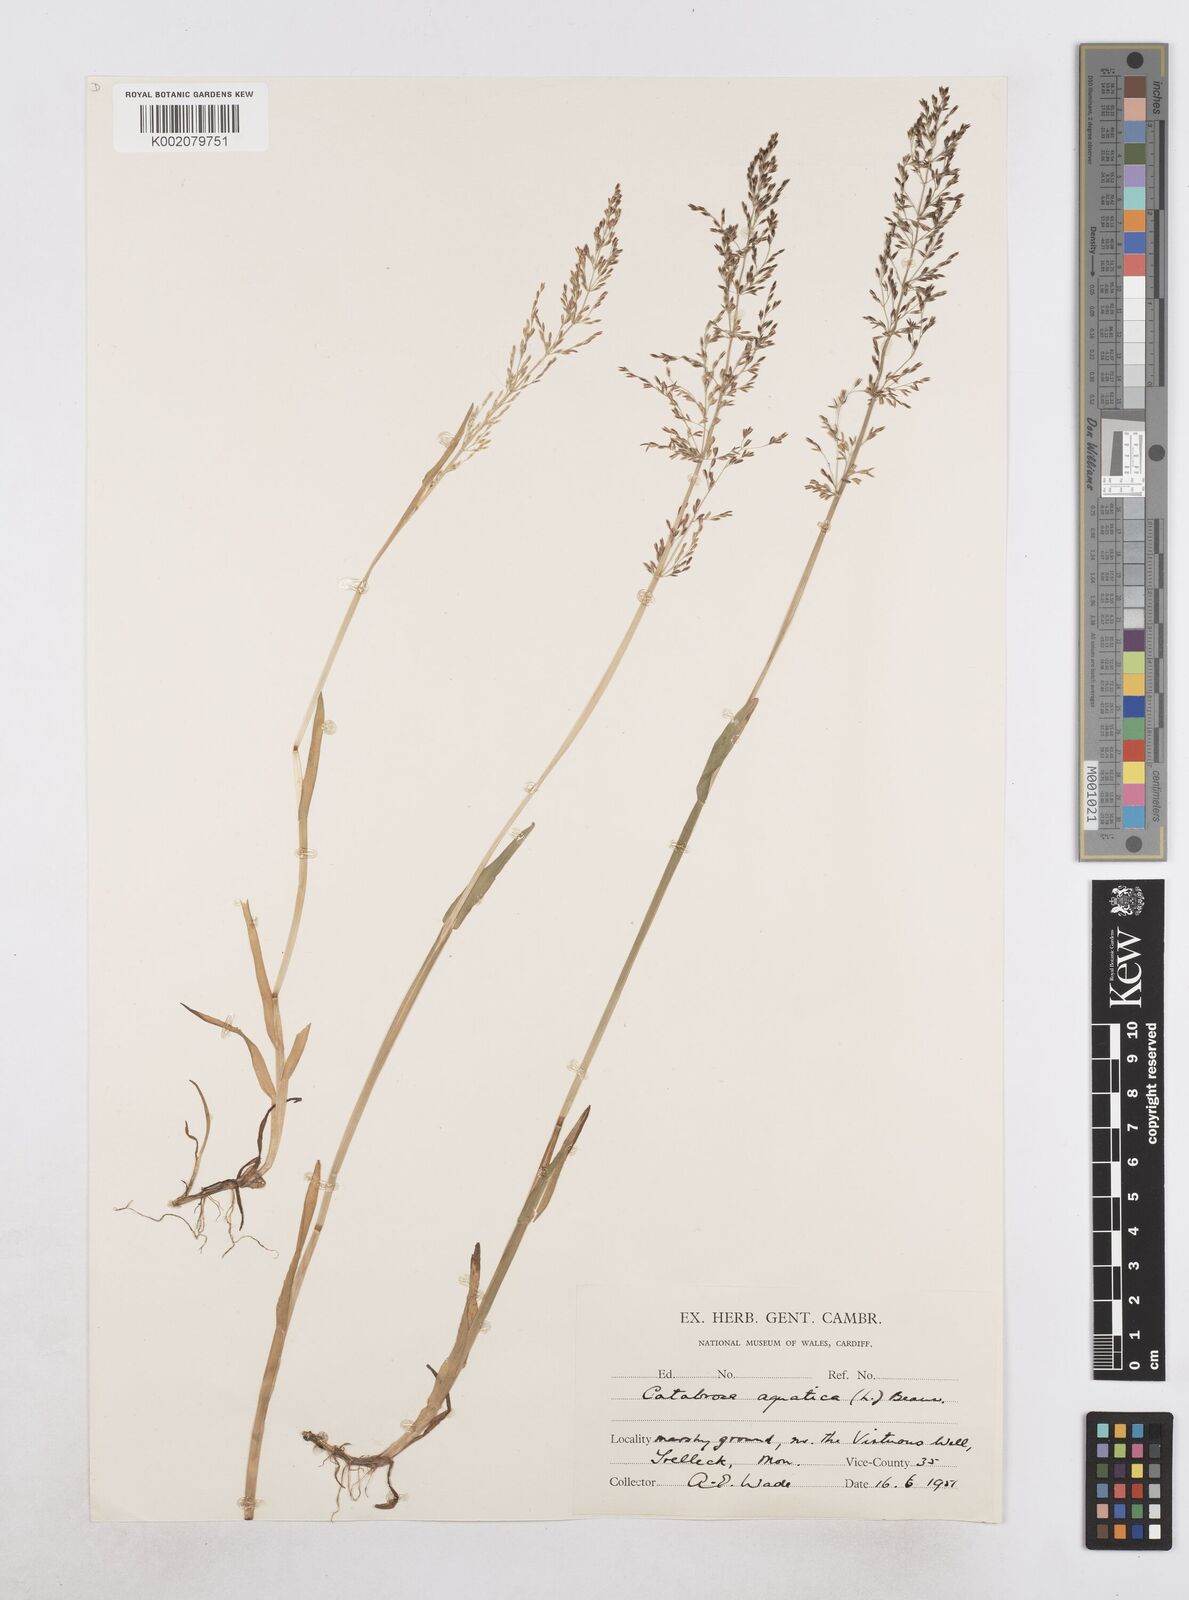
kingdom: Plantae
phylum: Tracheophyta
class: Liliopsida
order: Poales
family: Poaceae
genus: Catabrosa
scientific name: Catabrosa aquatica
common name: Whorl-grass
